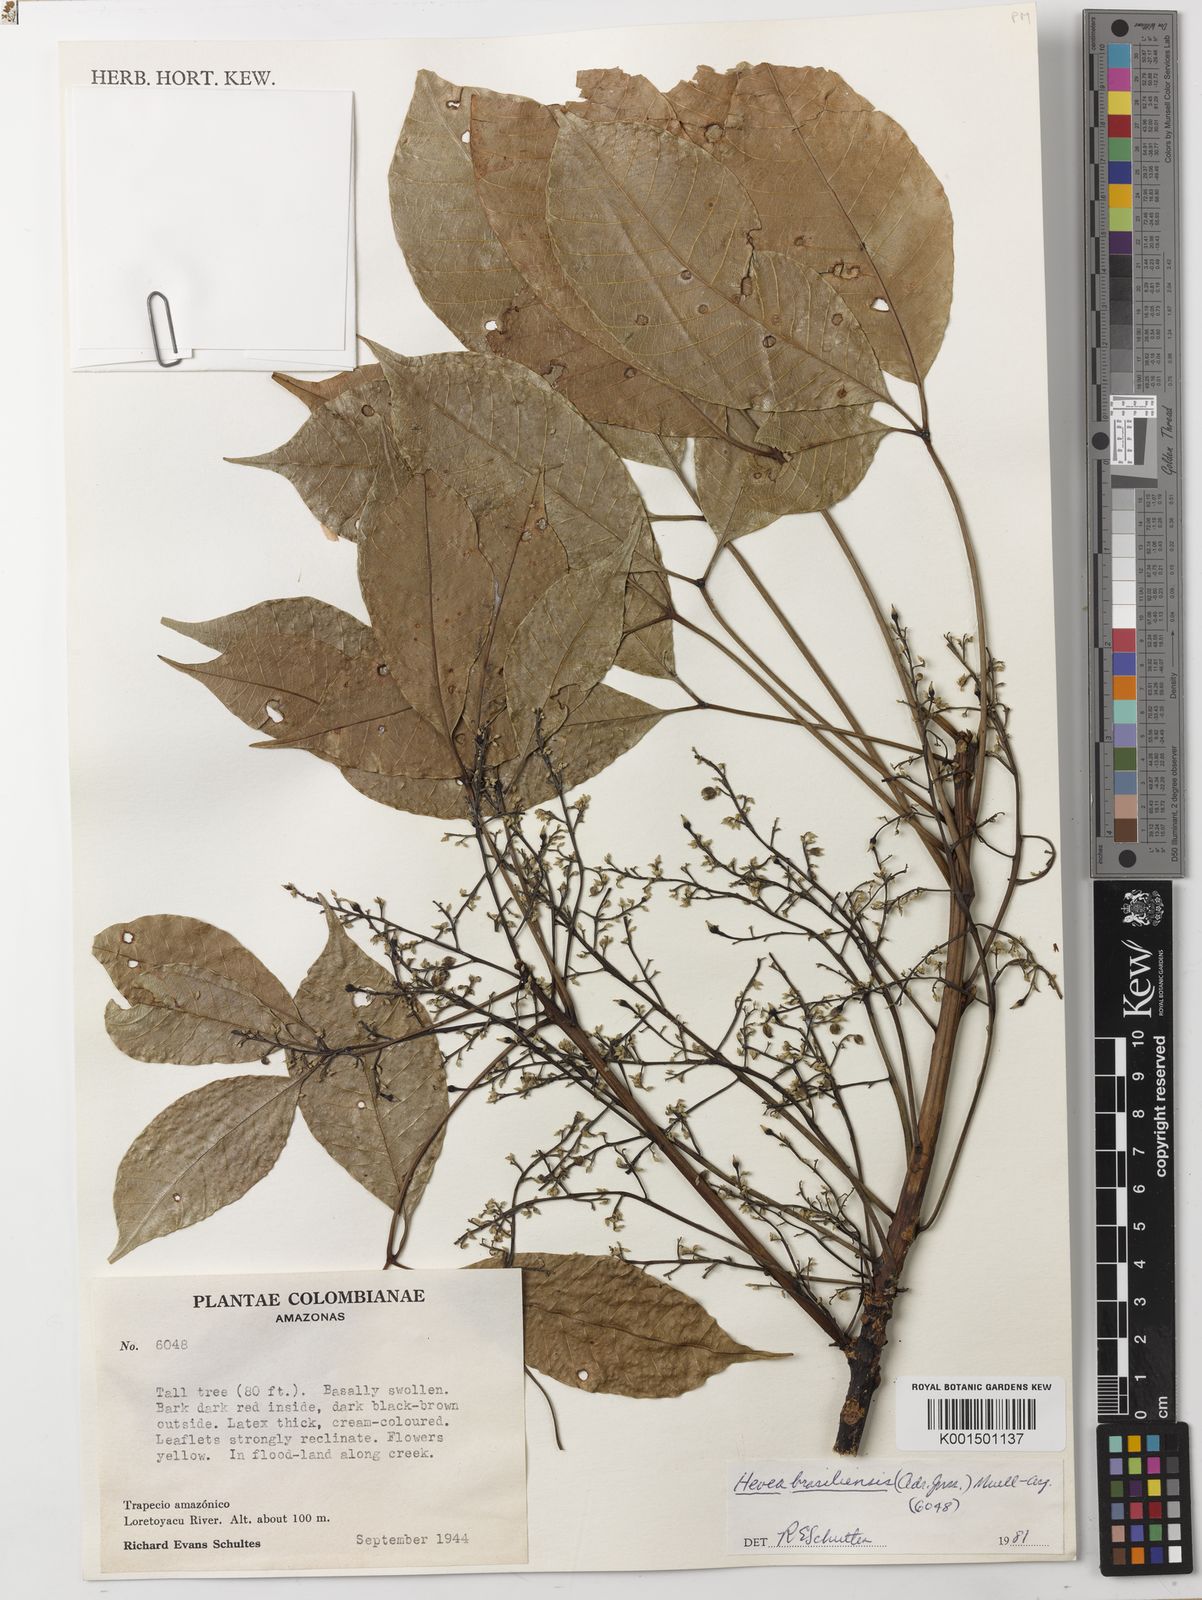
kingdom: Plantae
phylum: Tracheophyta
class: Magnoliopsida
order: Malpighiales
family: Euphorbiaceae
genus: Hevea
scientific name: Hevea brasiliensis
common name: Natural rubber
